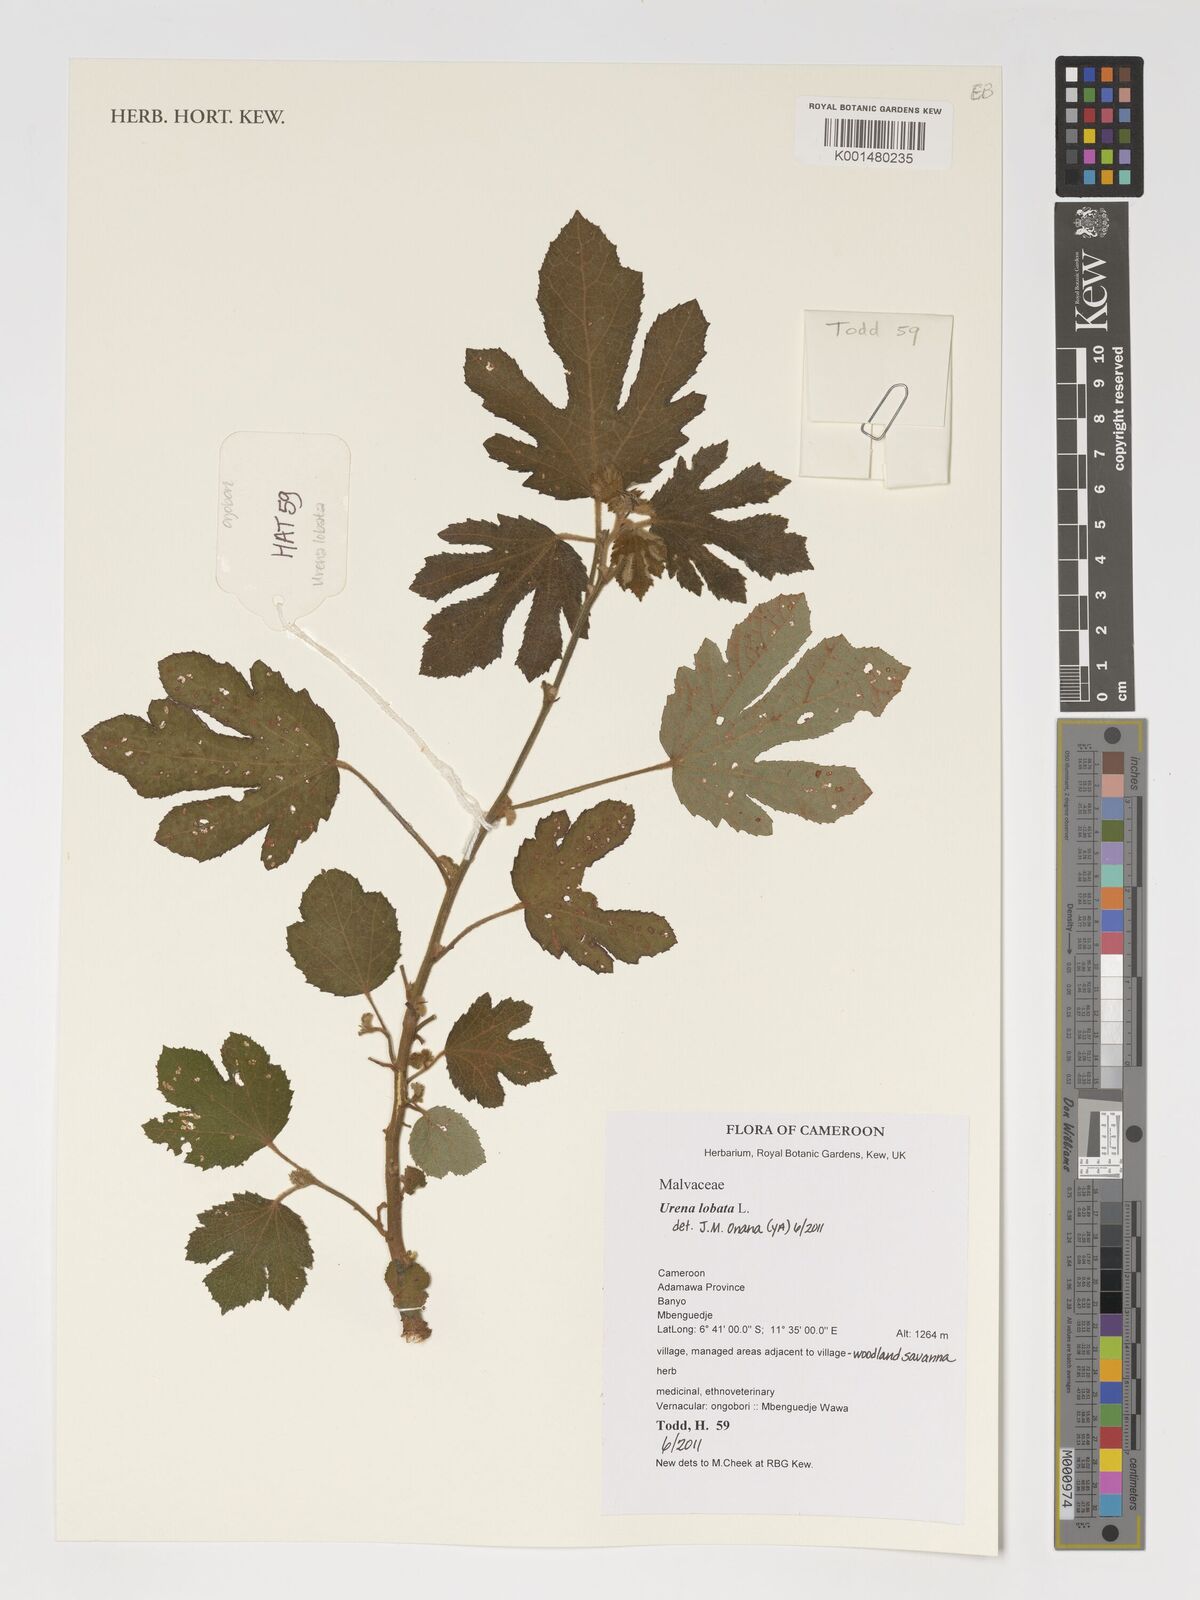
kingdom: Plantae
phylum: Tracheophyta
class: Magnoliopsida
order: Malvales
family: Malvaceae
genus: Urena
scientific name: Urena lobata
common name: Caesarweed
